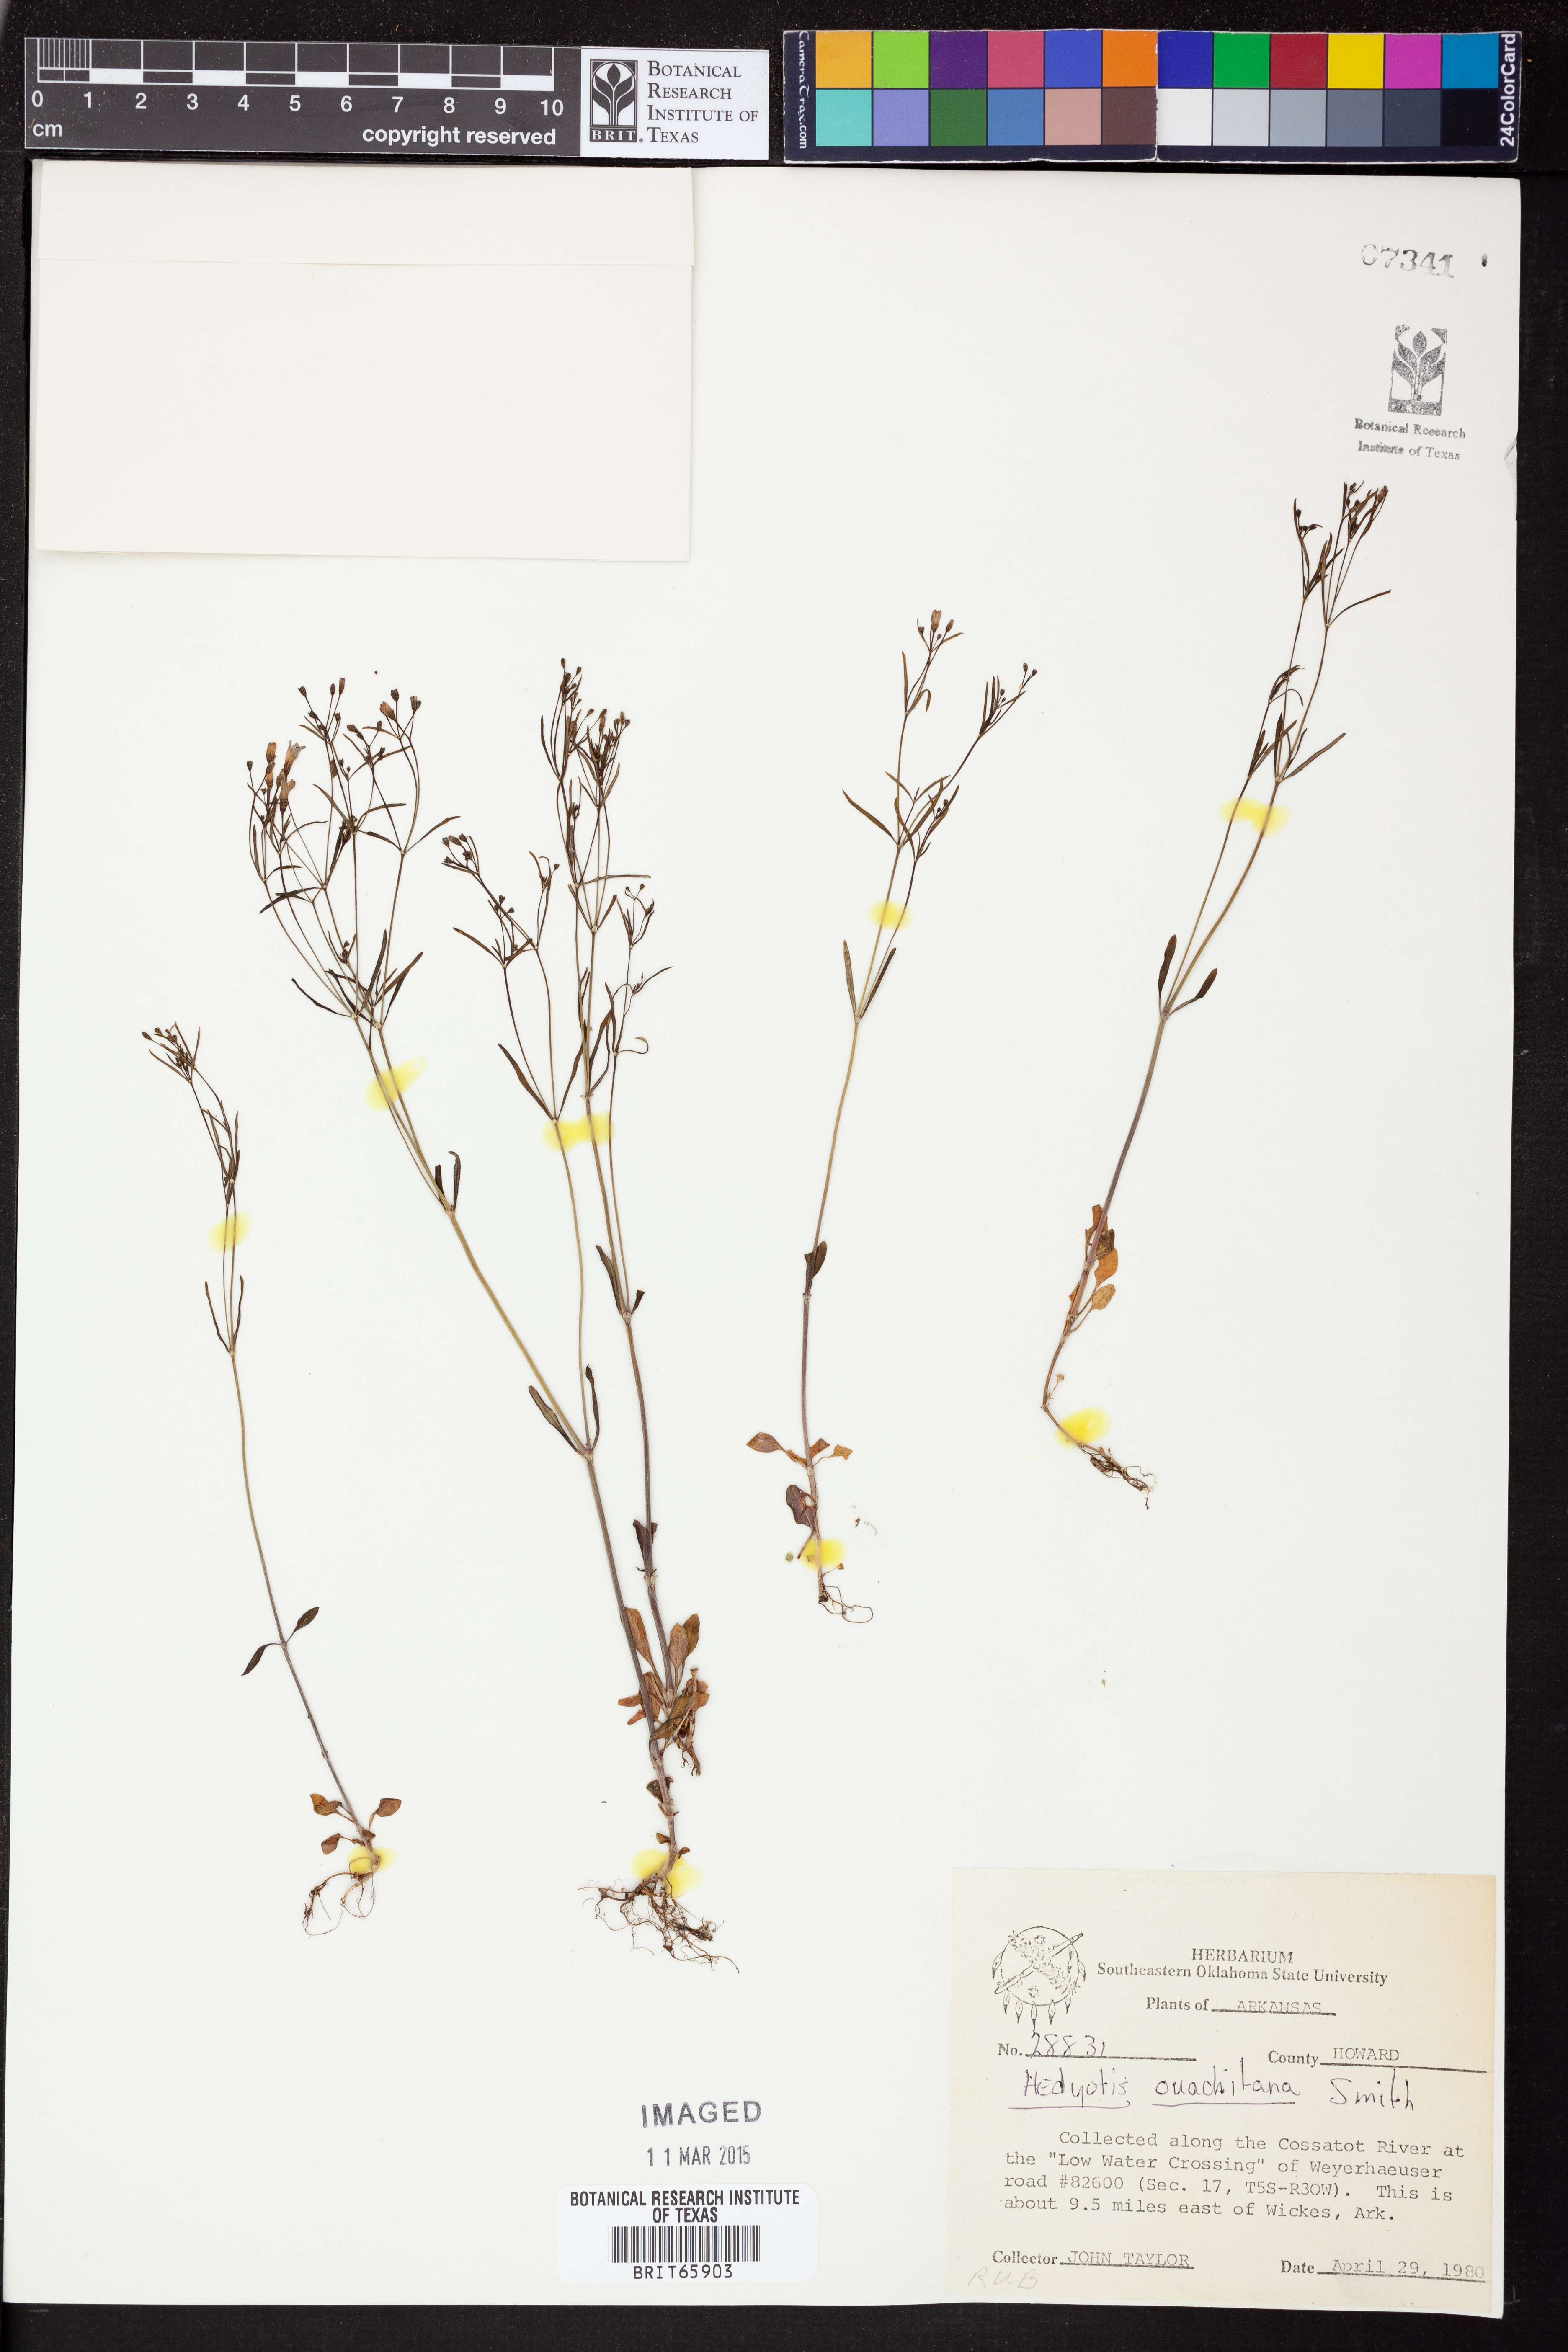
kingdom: Plantae
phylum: Tracheophyta
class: Magnoliopsida
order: Gentianales
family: Rubiaceae
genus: Houstonia
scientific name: Houstonia ouachitana
